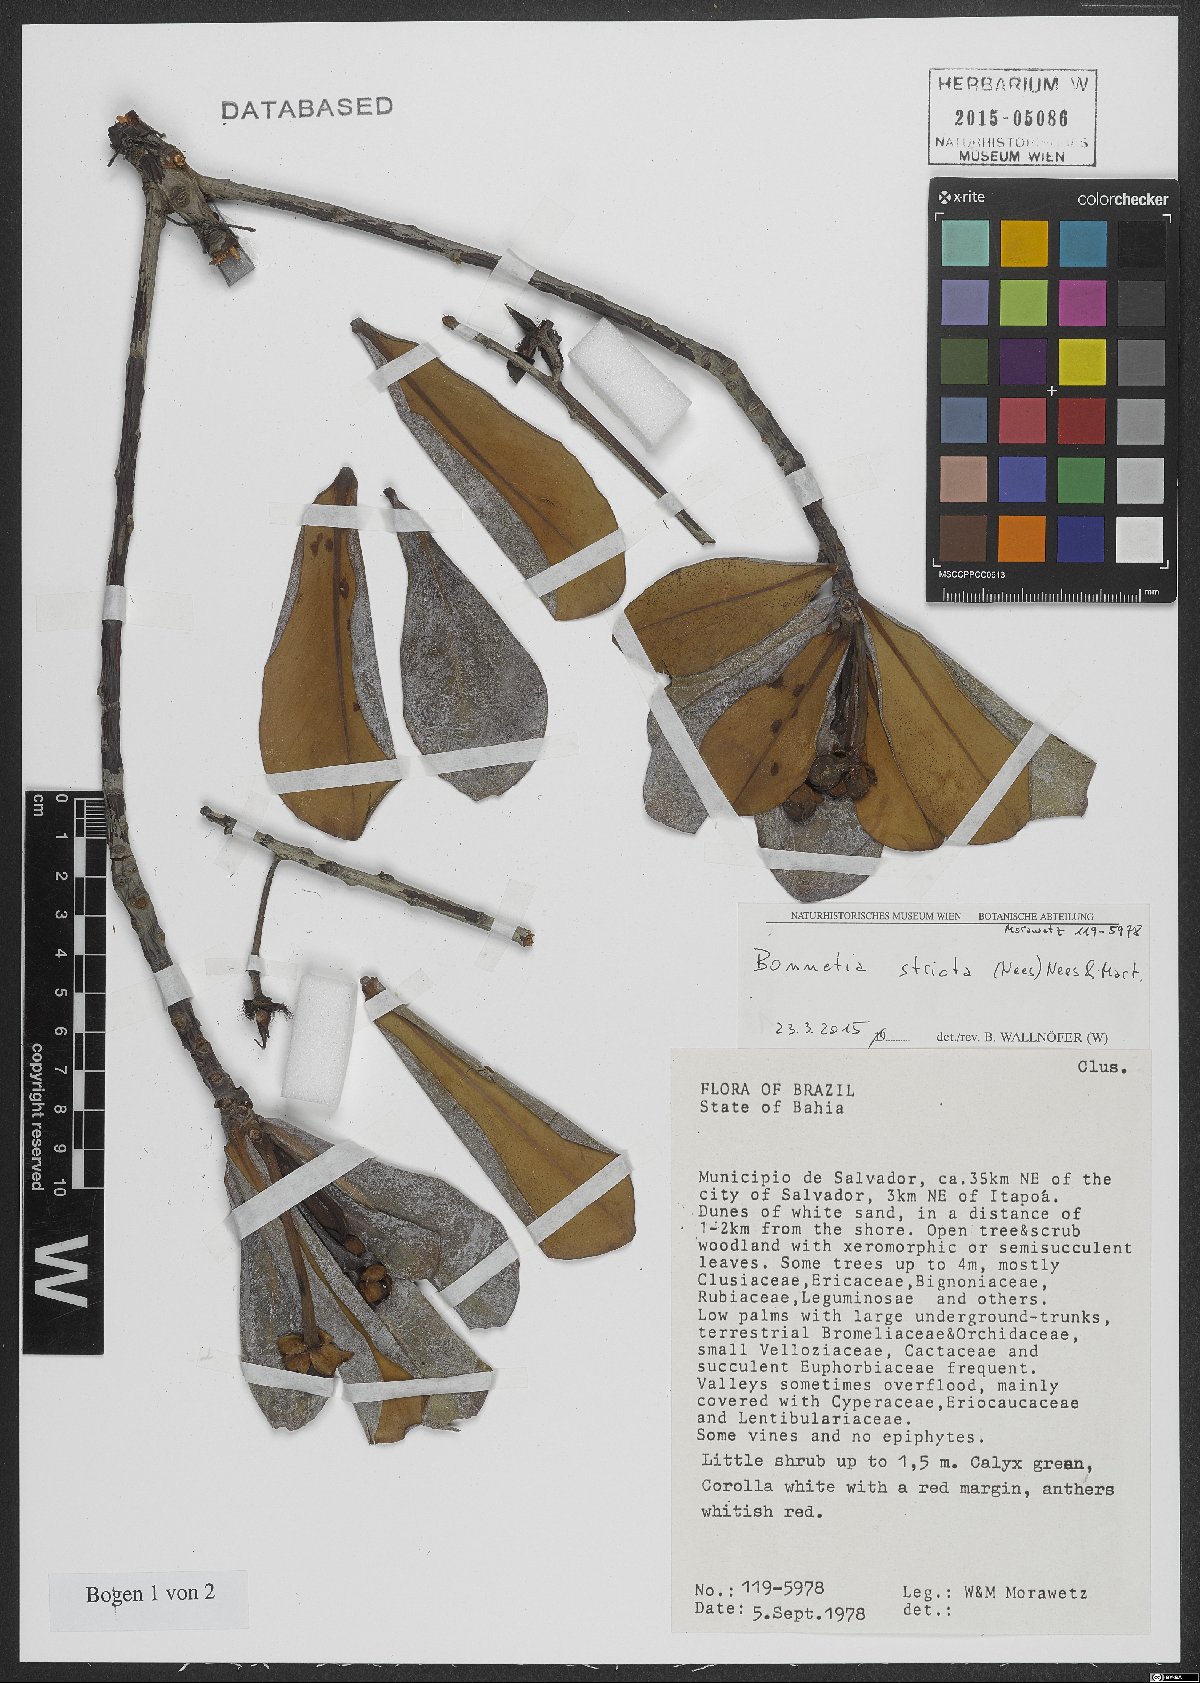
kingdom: Plantae
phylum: Tracheophyta
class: Magnoliopsida
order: Malpighiales
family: Bonnetiaceae
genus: Bonnetia
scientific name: Bonnetia stricta
